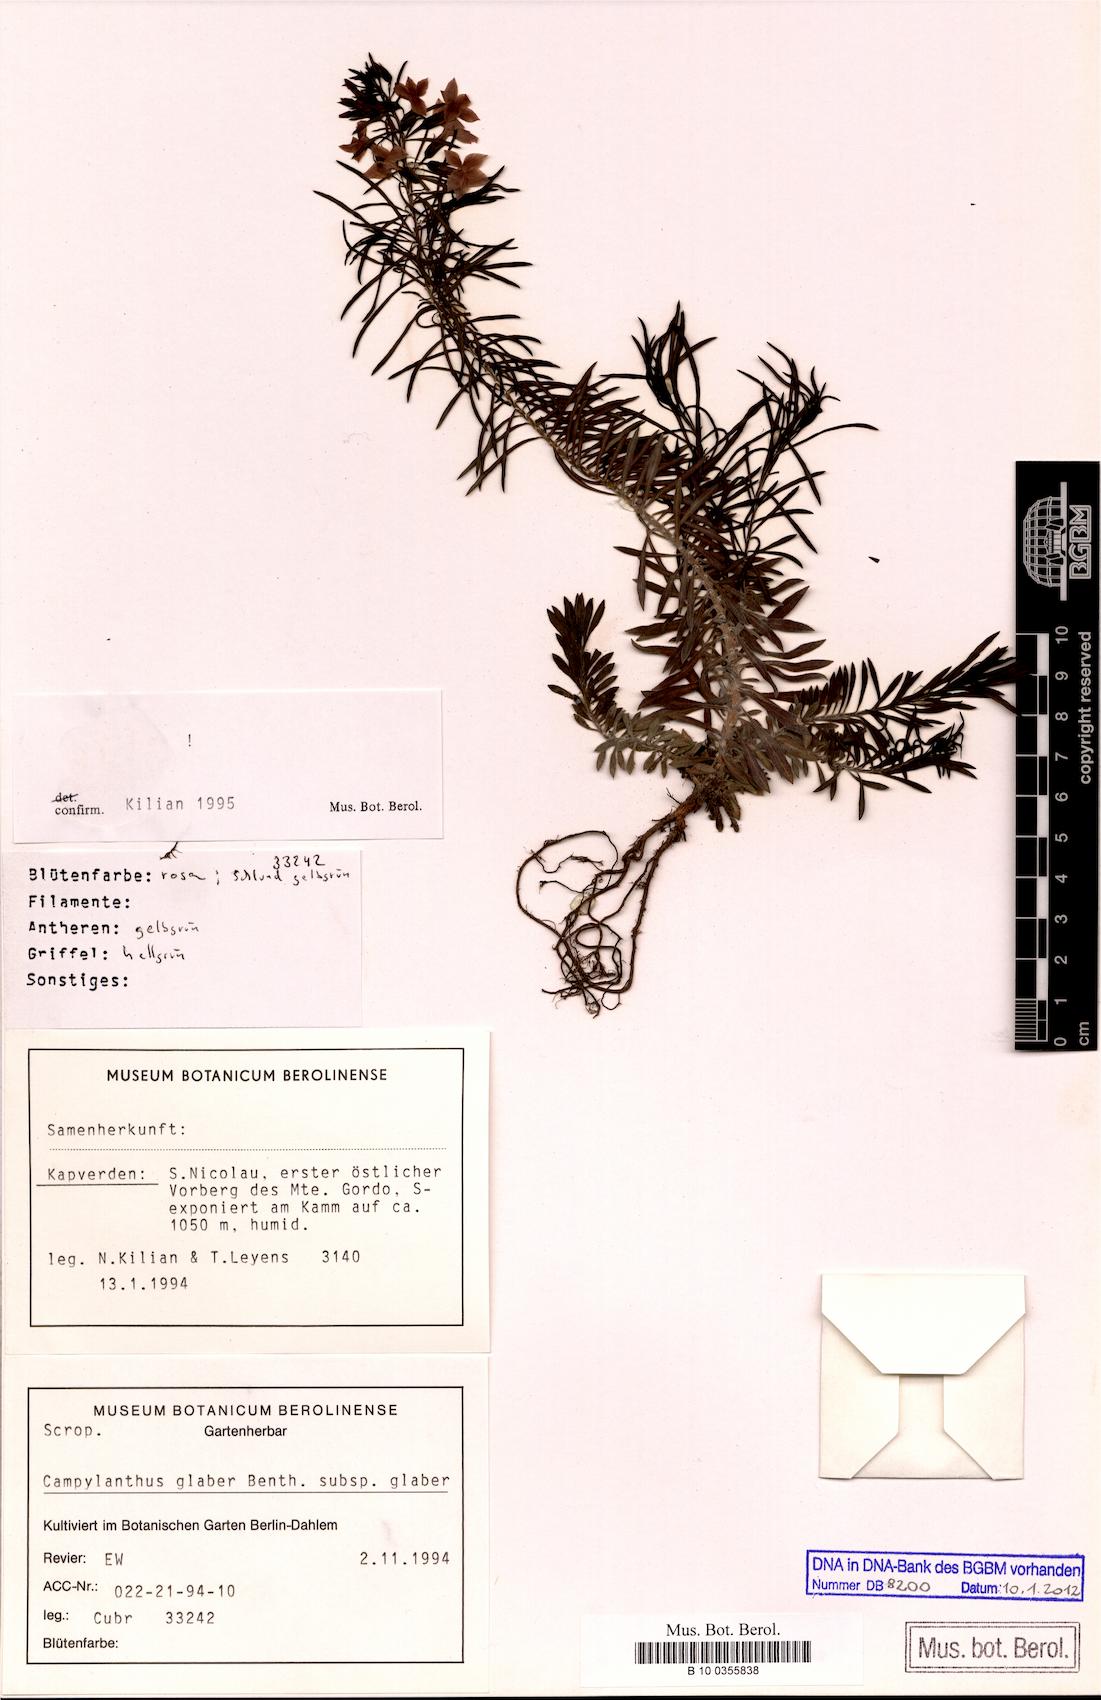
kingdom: Plantae
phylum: Tracheophyta
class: Magnoliopsida
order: Lamiales
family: Plantaginaceae
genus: Campylanthus
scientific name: Campylanthus glaber
